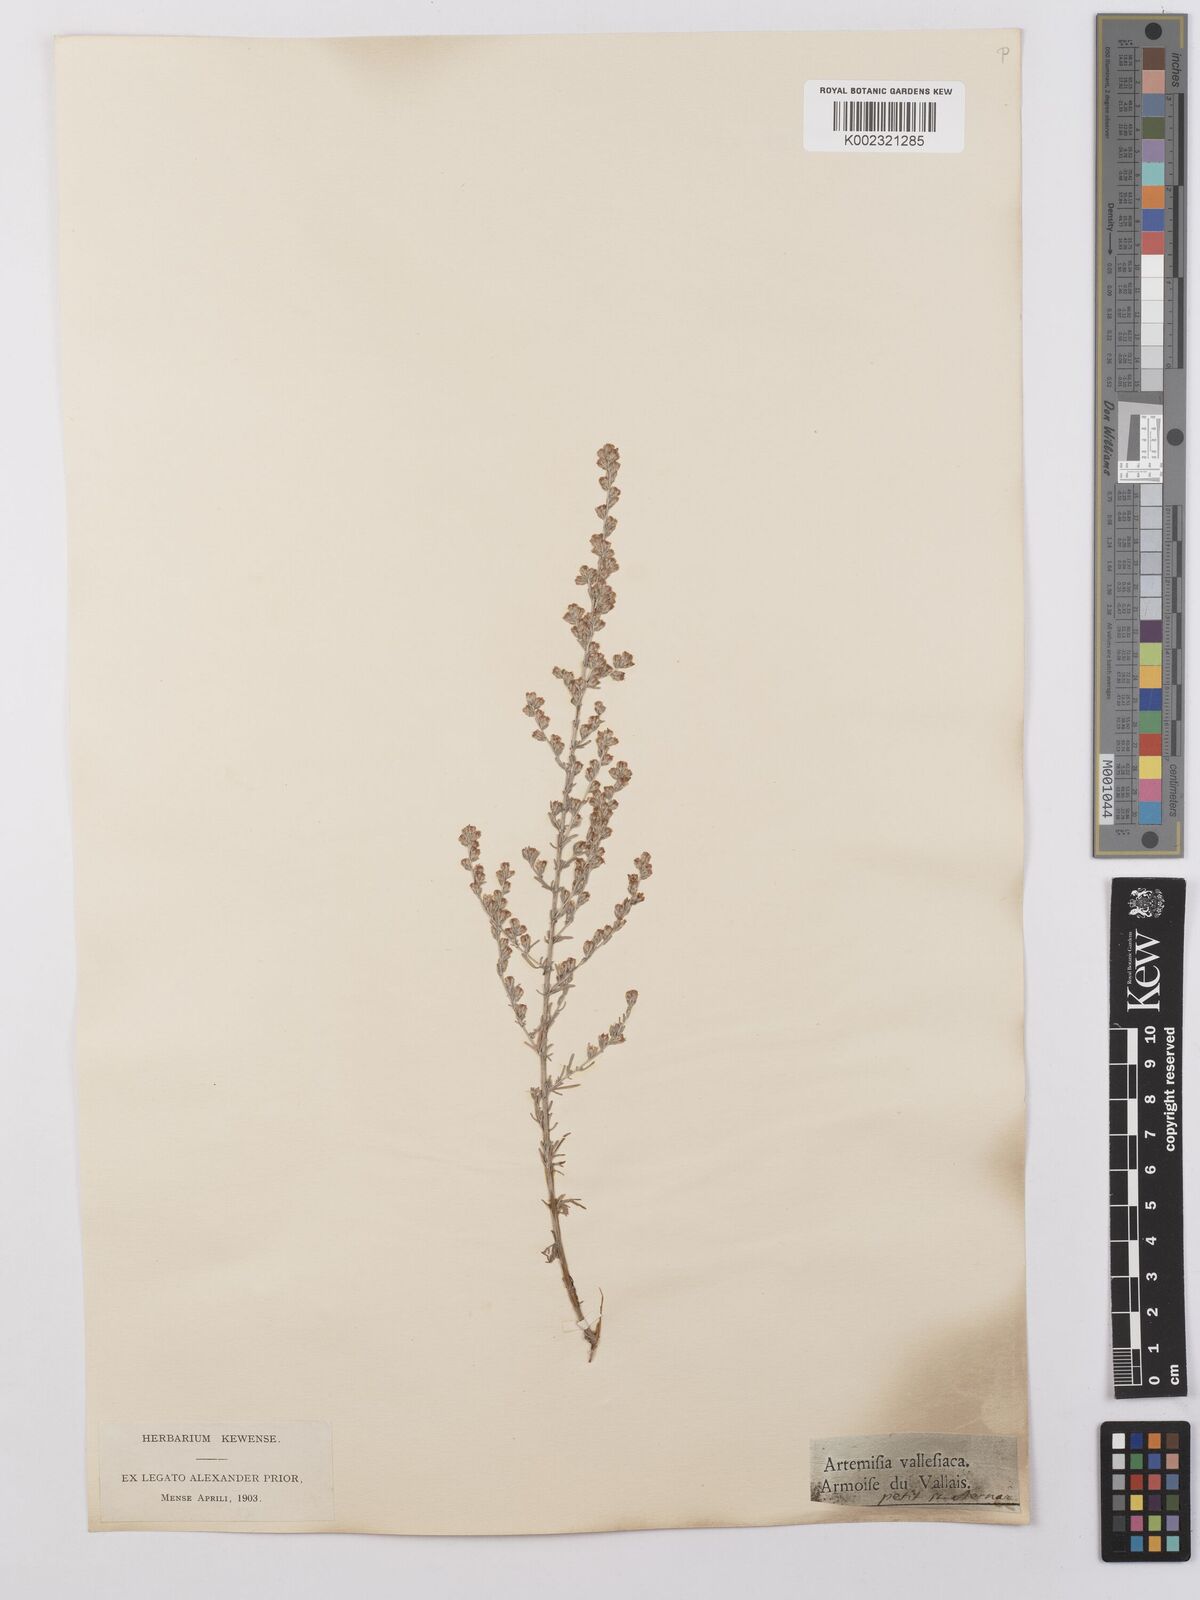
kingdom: Plantae
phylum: Tracheophyta
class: Magnoliopsida
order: Asterales
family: Asteraceae
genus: Artemisia
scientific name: Artemisia vallesiaca
